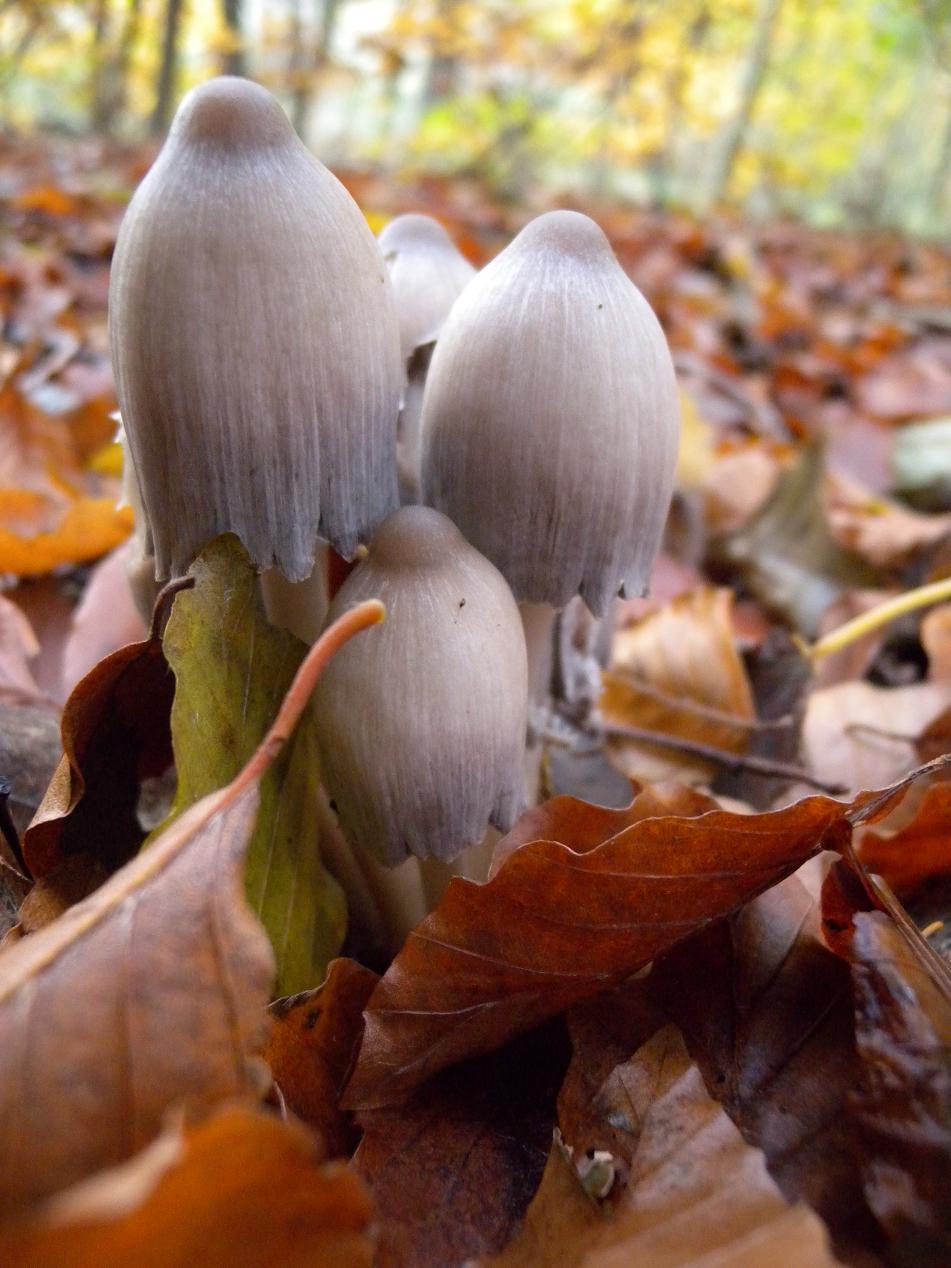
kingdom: Fungi
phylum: Basidiomycota
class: Agaricomycetes
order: Agaricales
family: Psathyrellaceae
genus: Coprinopsis
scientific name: Coprinopsis acuminata
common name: kegle-blækhat
